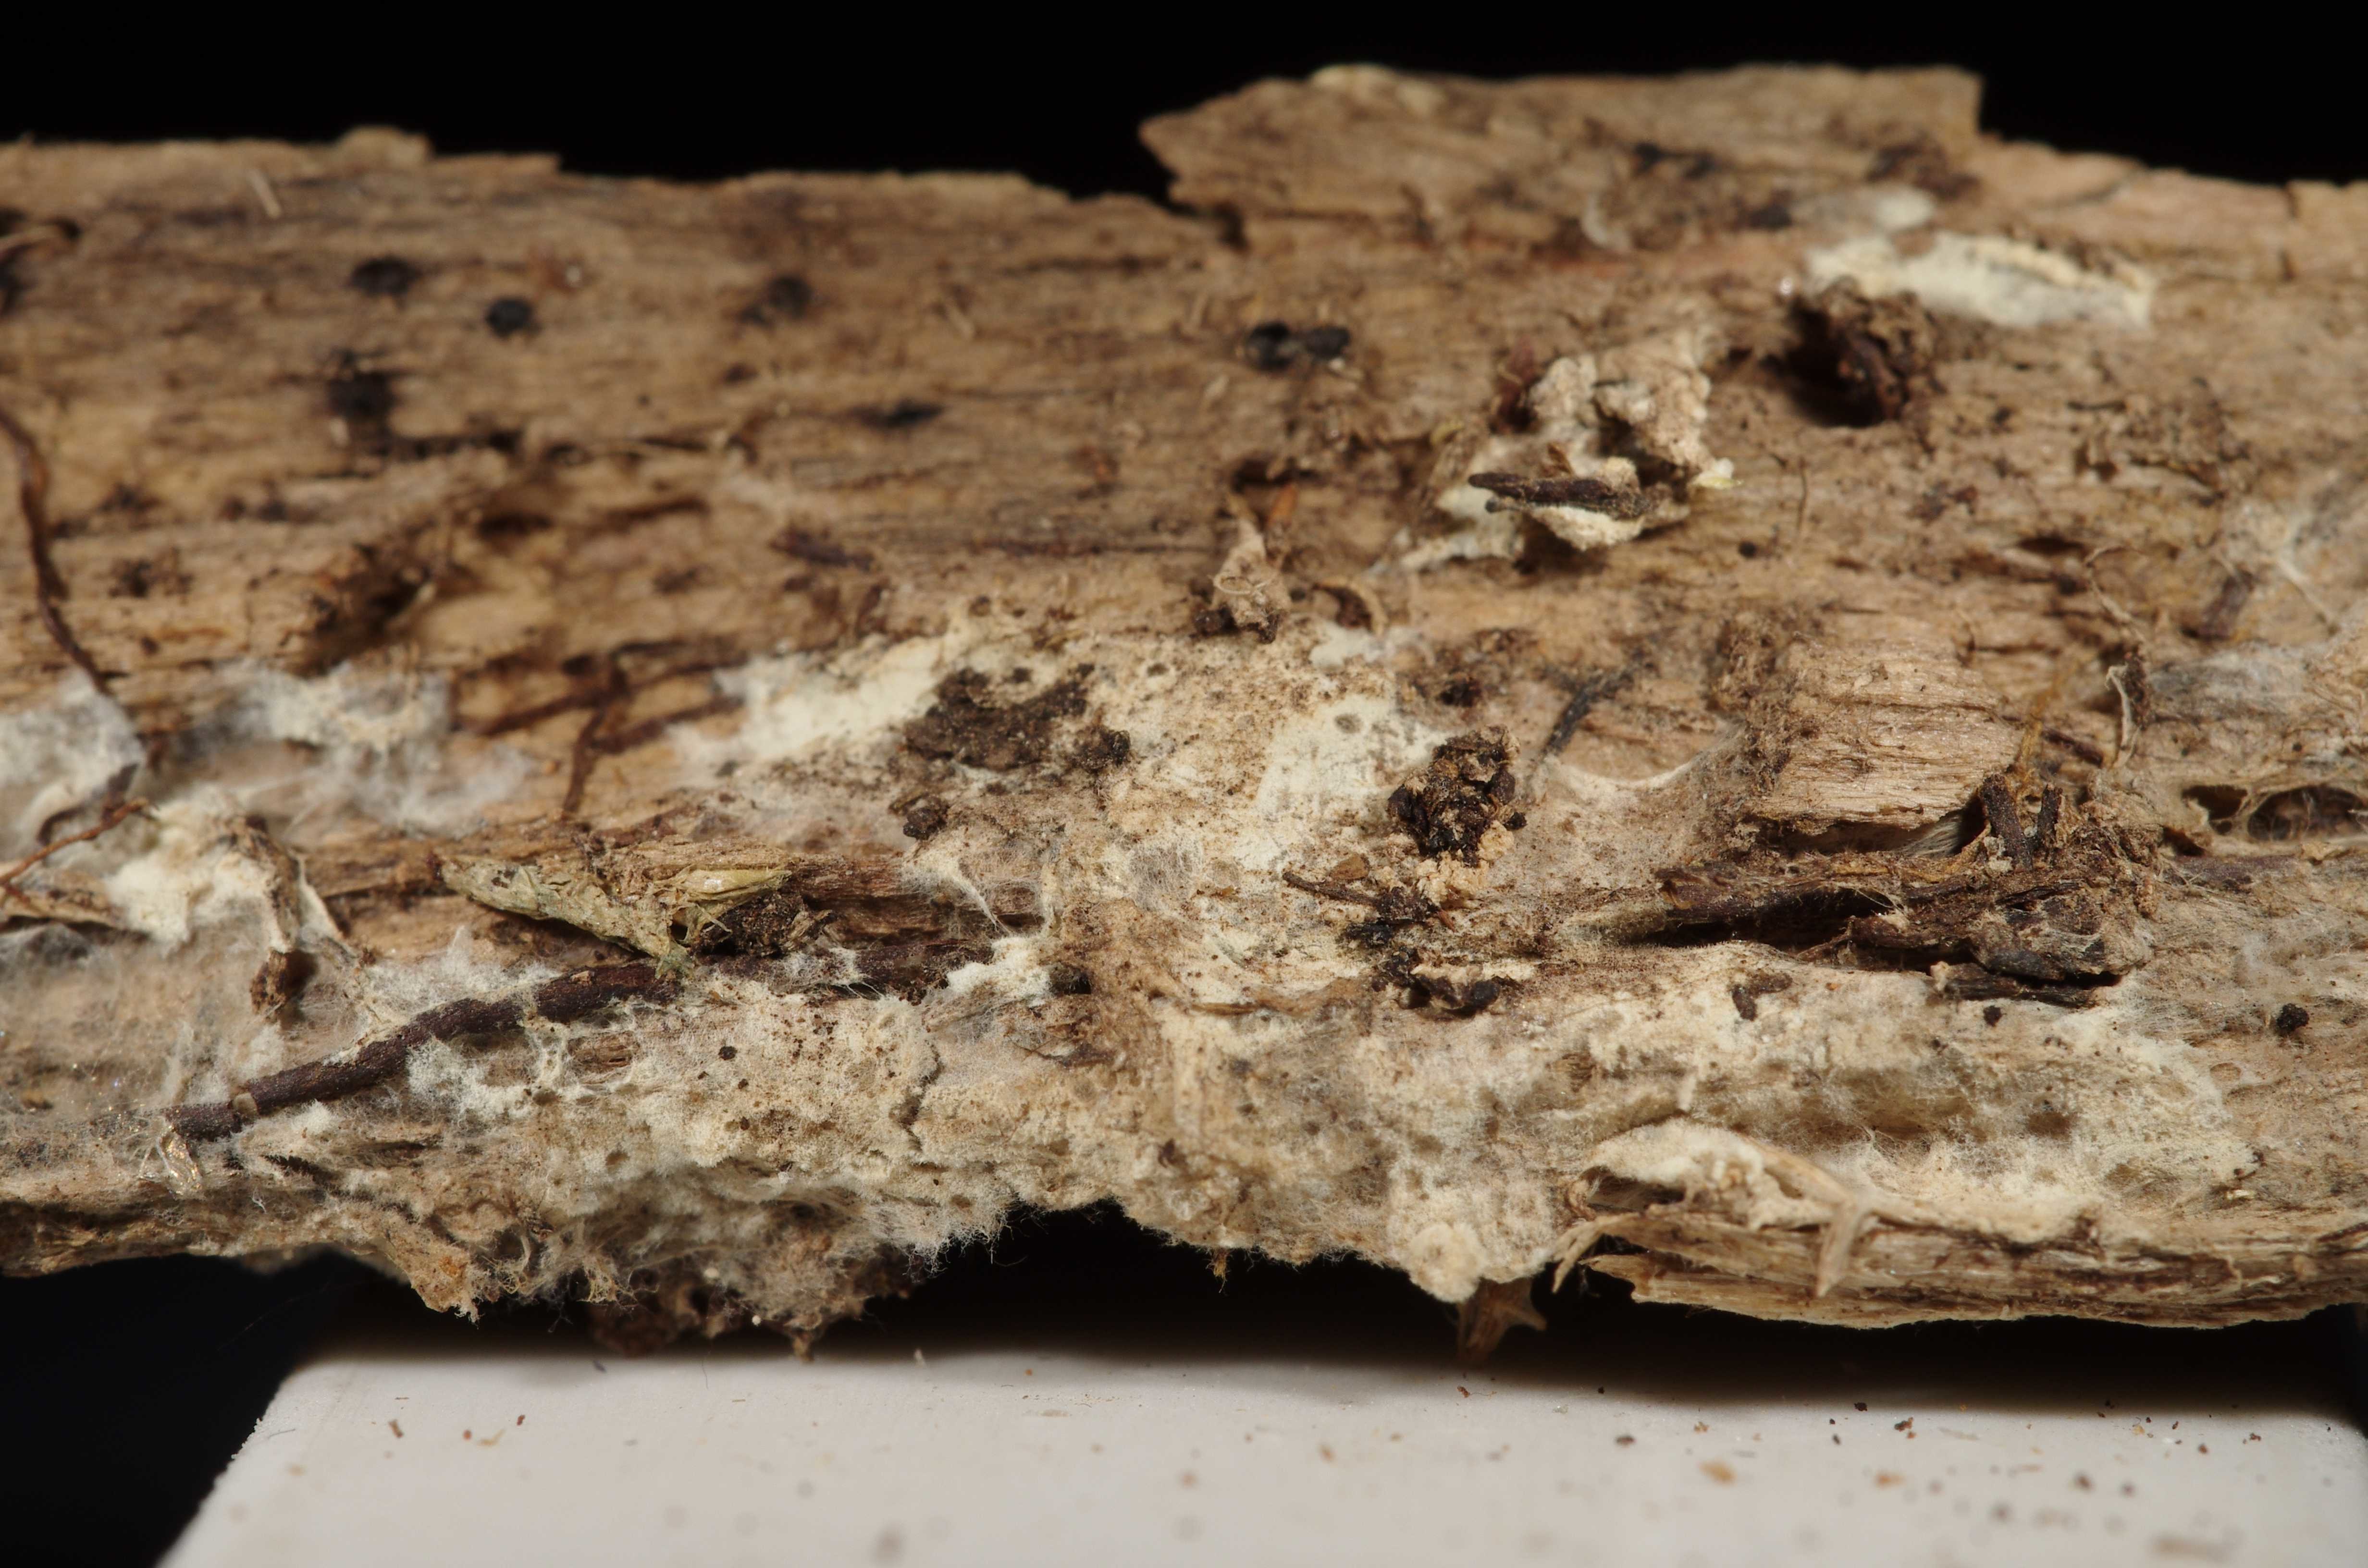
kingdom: Fungi
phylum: Basidiomycota
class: Agaricomycetes
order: Atheliales
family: Atheliaceae
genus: Amphinema
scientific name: Amphinema
